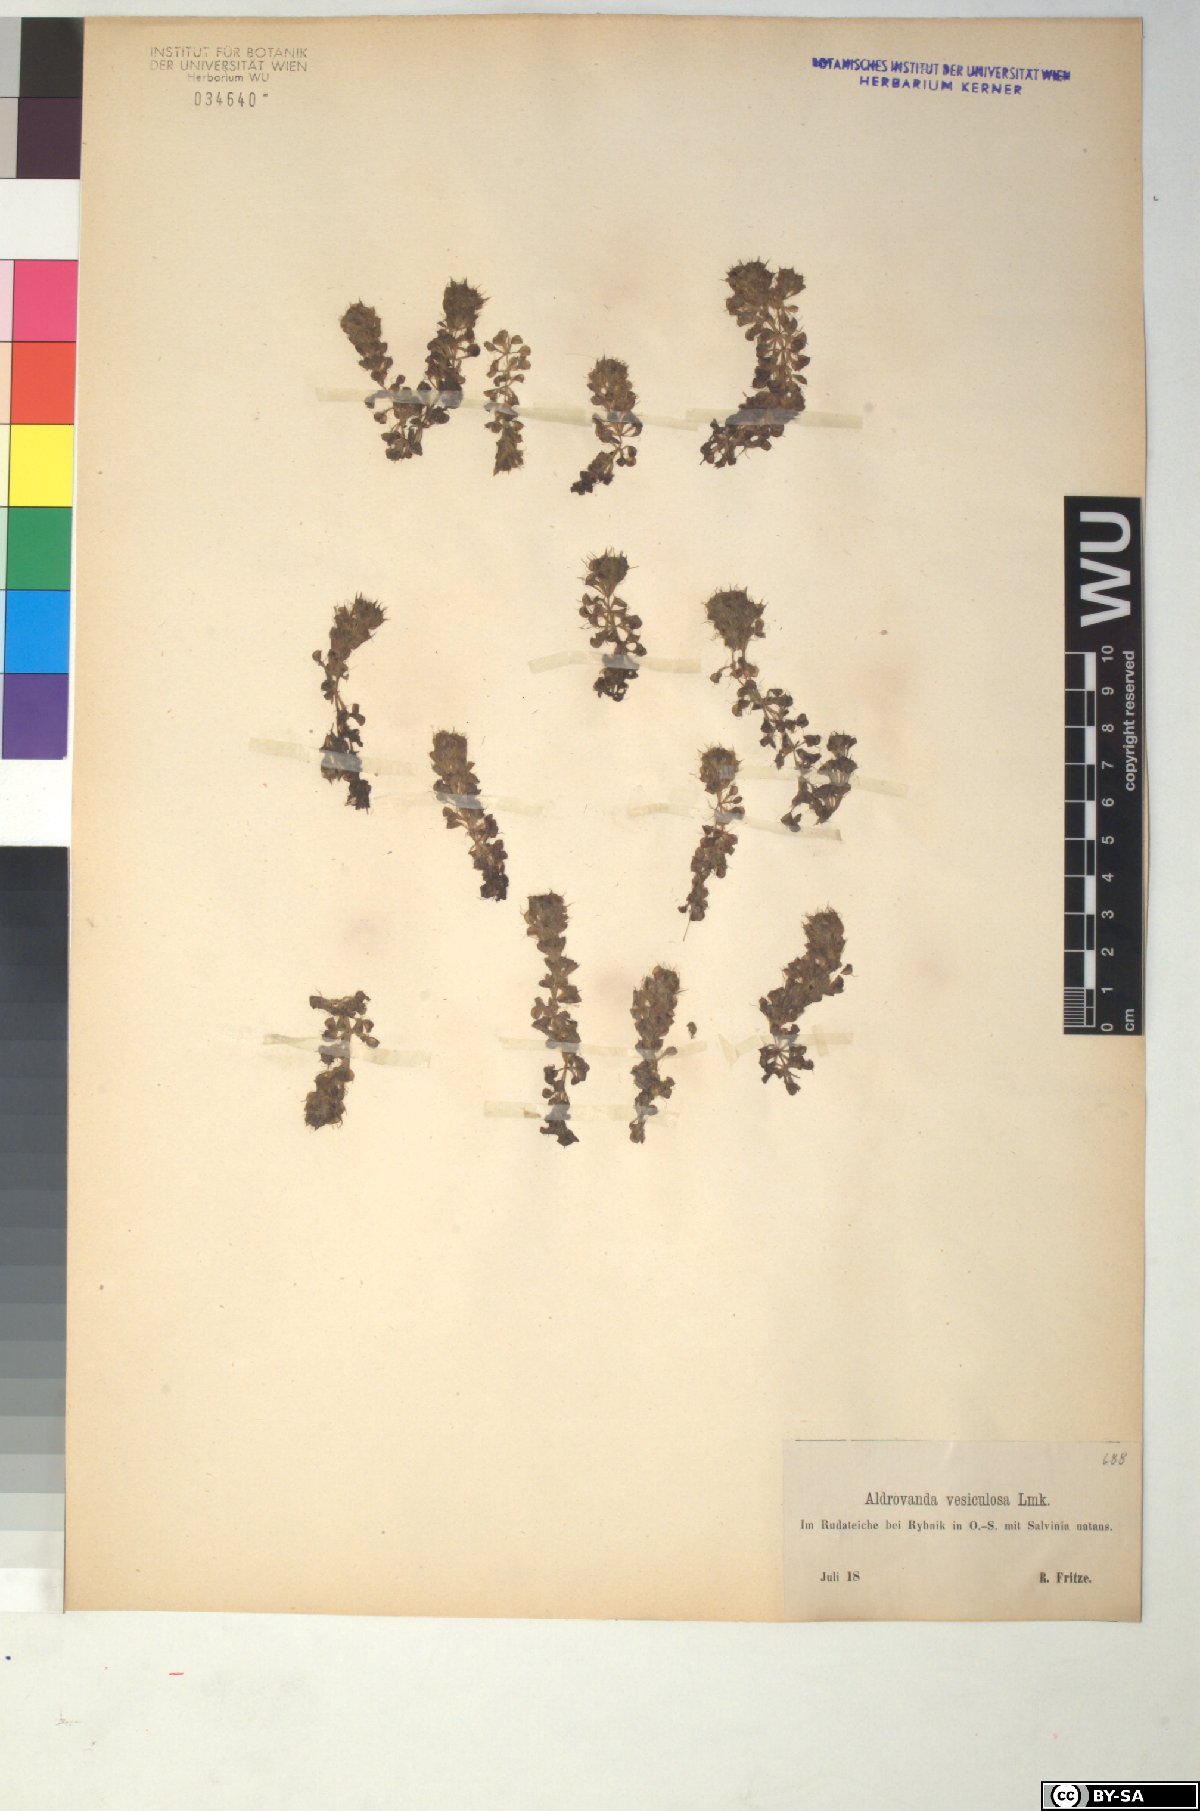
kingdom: Plantae
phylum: Tracheophyta
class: Magnoliopsida
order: Caryophyllales
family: Droseraceae
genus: Aldrovanda
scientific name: Aldrovanda vesiculosa
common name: Waterwheel plant
